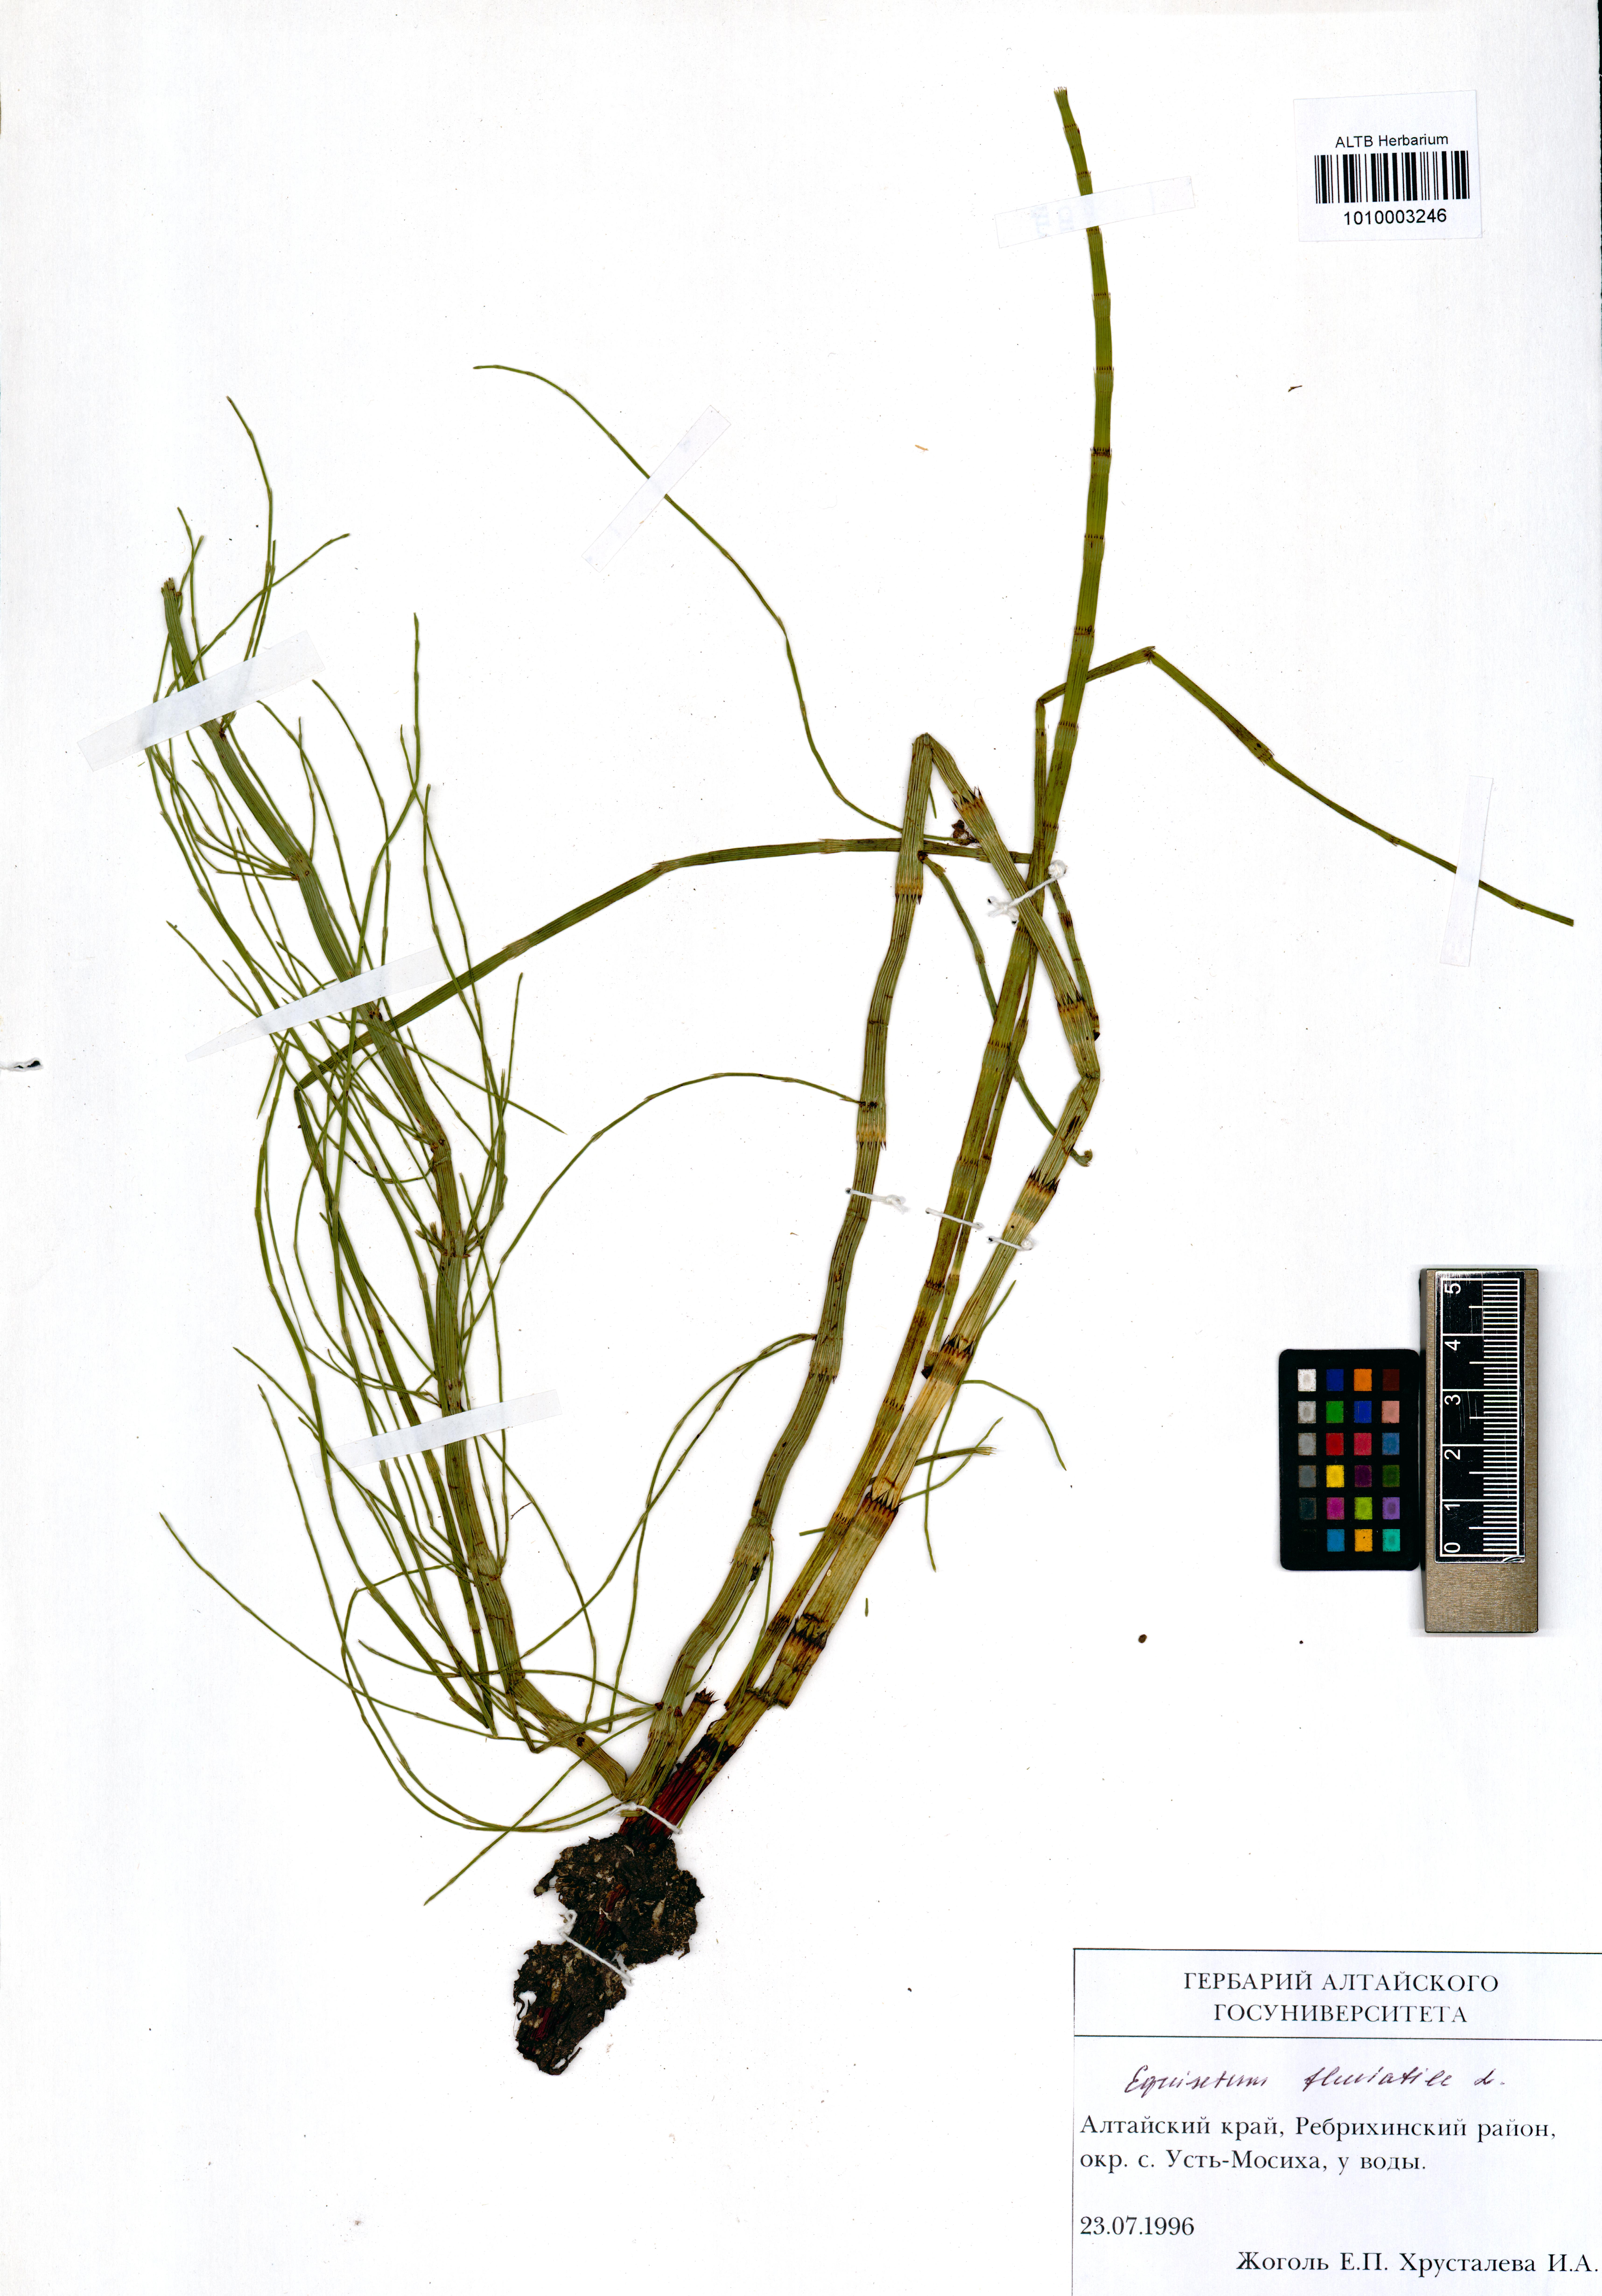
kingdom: Plantae
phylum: Tracheophyta
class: Polypodiopsida
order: Equisetales
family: Equisetaceae
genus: Equisetum
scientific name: Equisetum fluviatile
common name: Water horsetail
